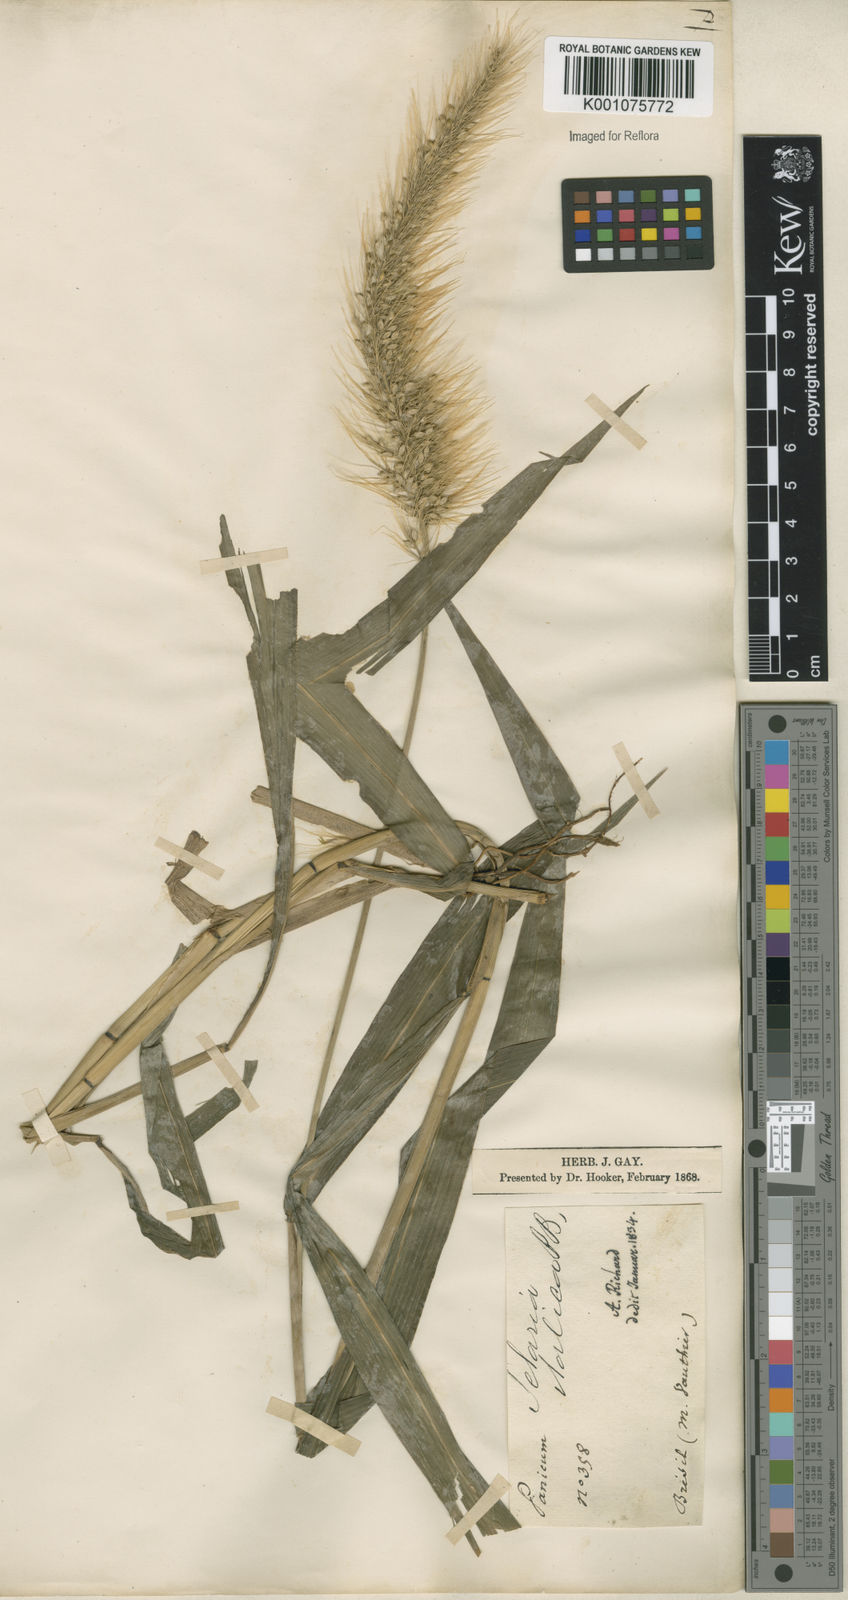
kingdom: Plantae
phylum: Tracheophyta
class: Liliopsida
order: Poales
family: Poaceae
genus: Setaria
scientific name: Setaria vulpiseta
